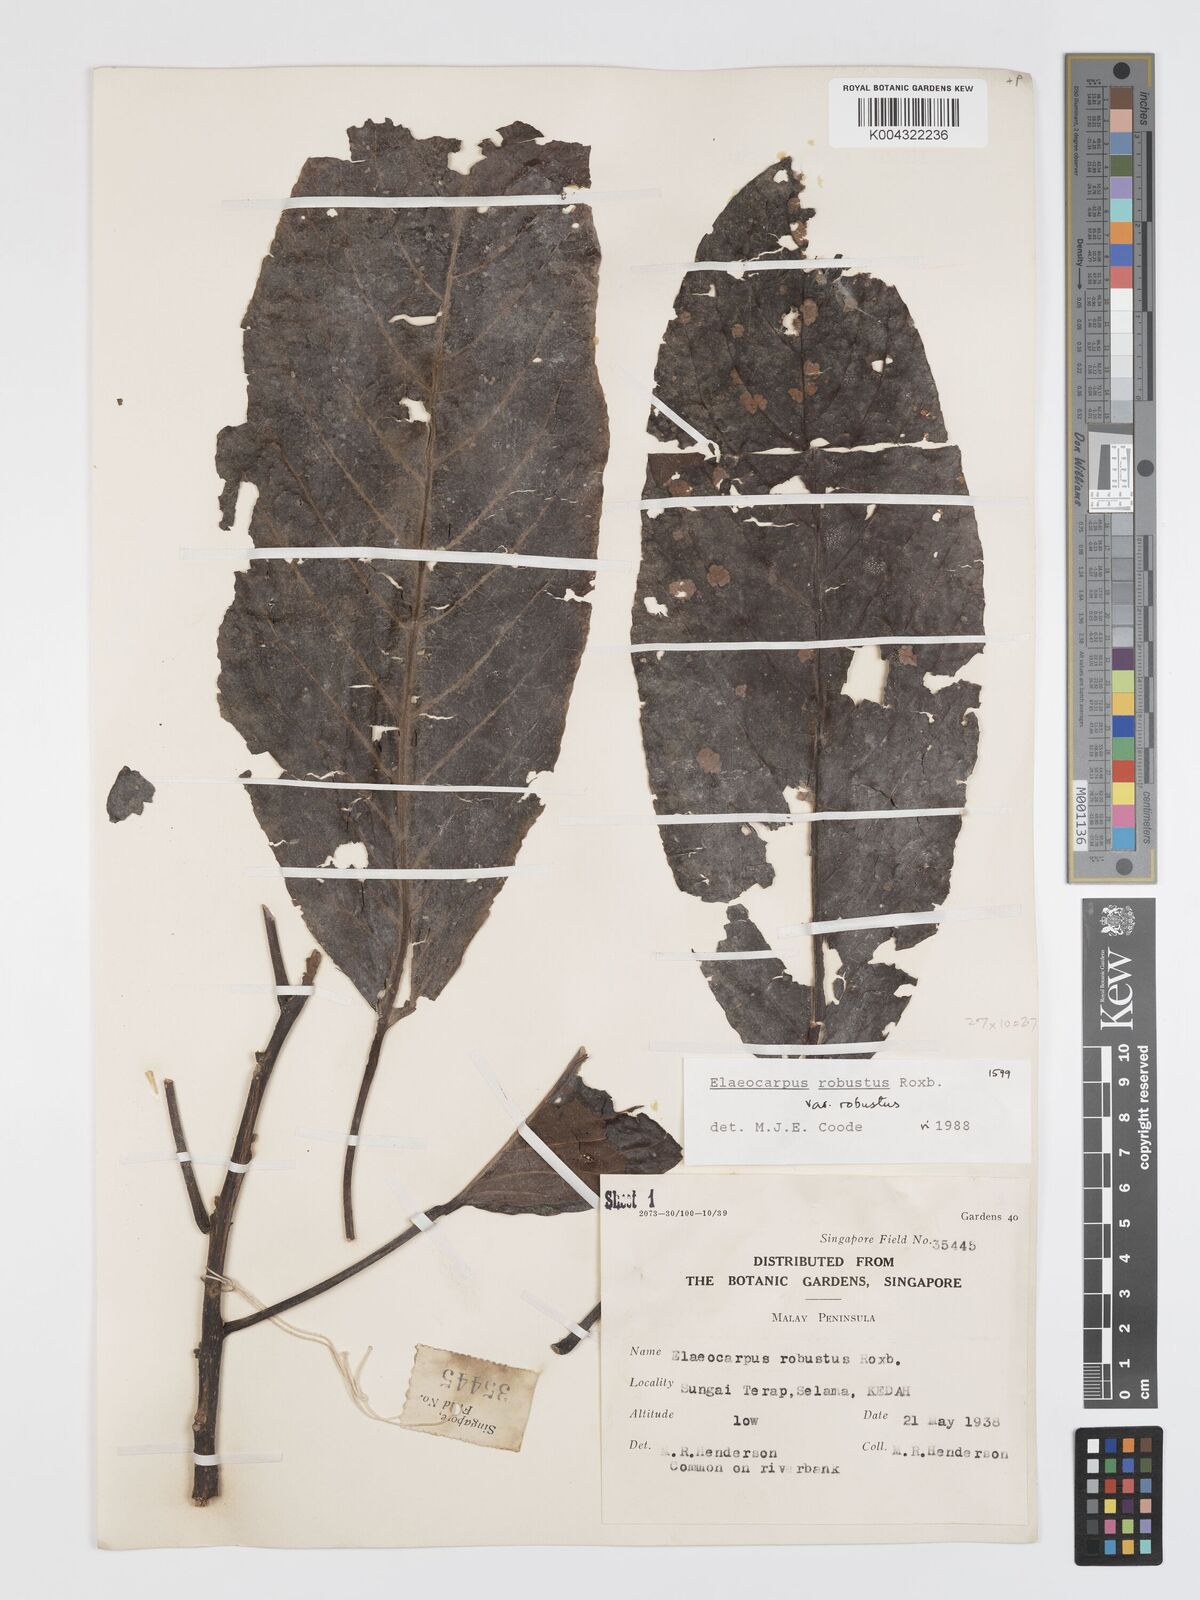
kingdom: Plantae
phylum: Tracheophyta
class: Magnoliopsida
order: Oxalidales
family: Elaeocarpaceae
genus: Elaeocarpus
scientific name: Elaeocarpus robustus
